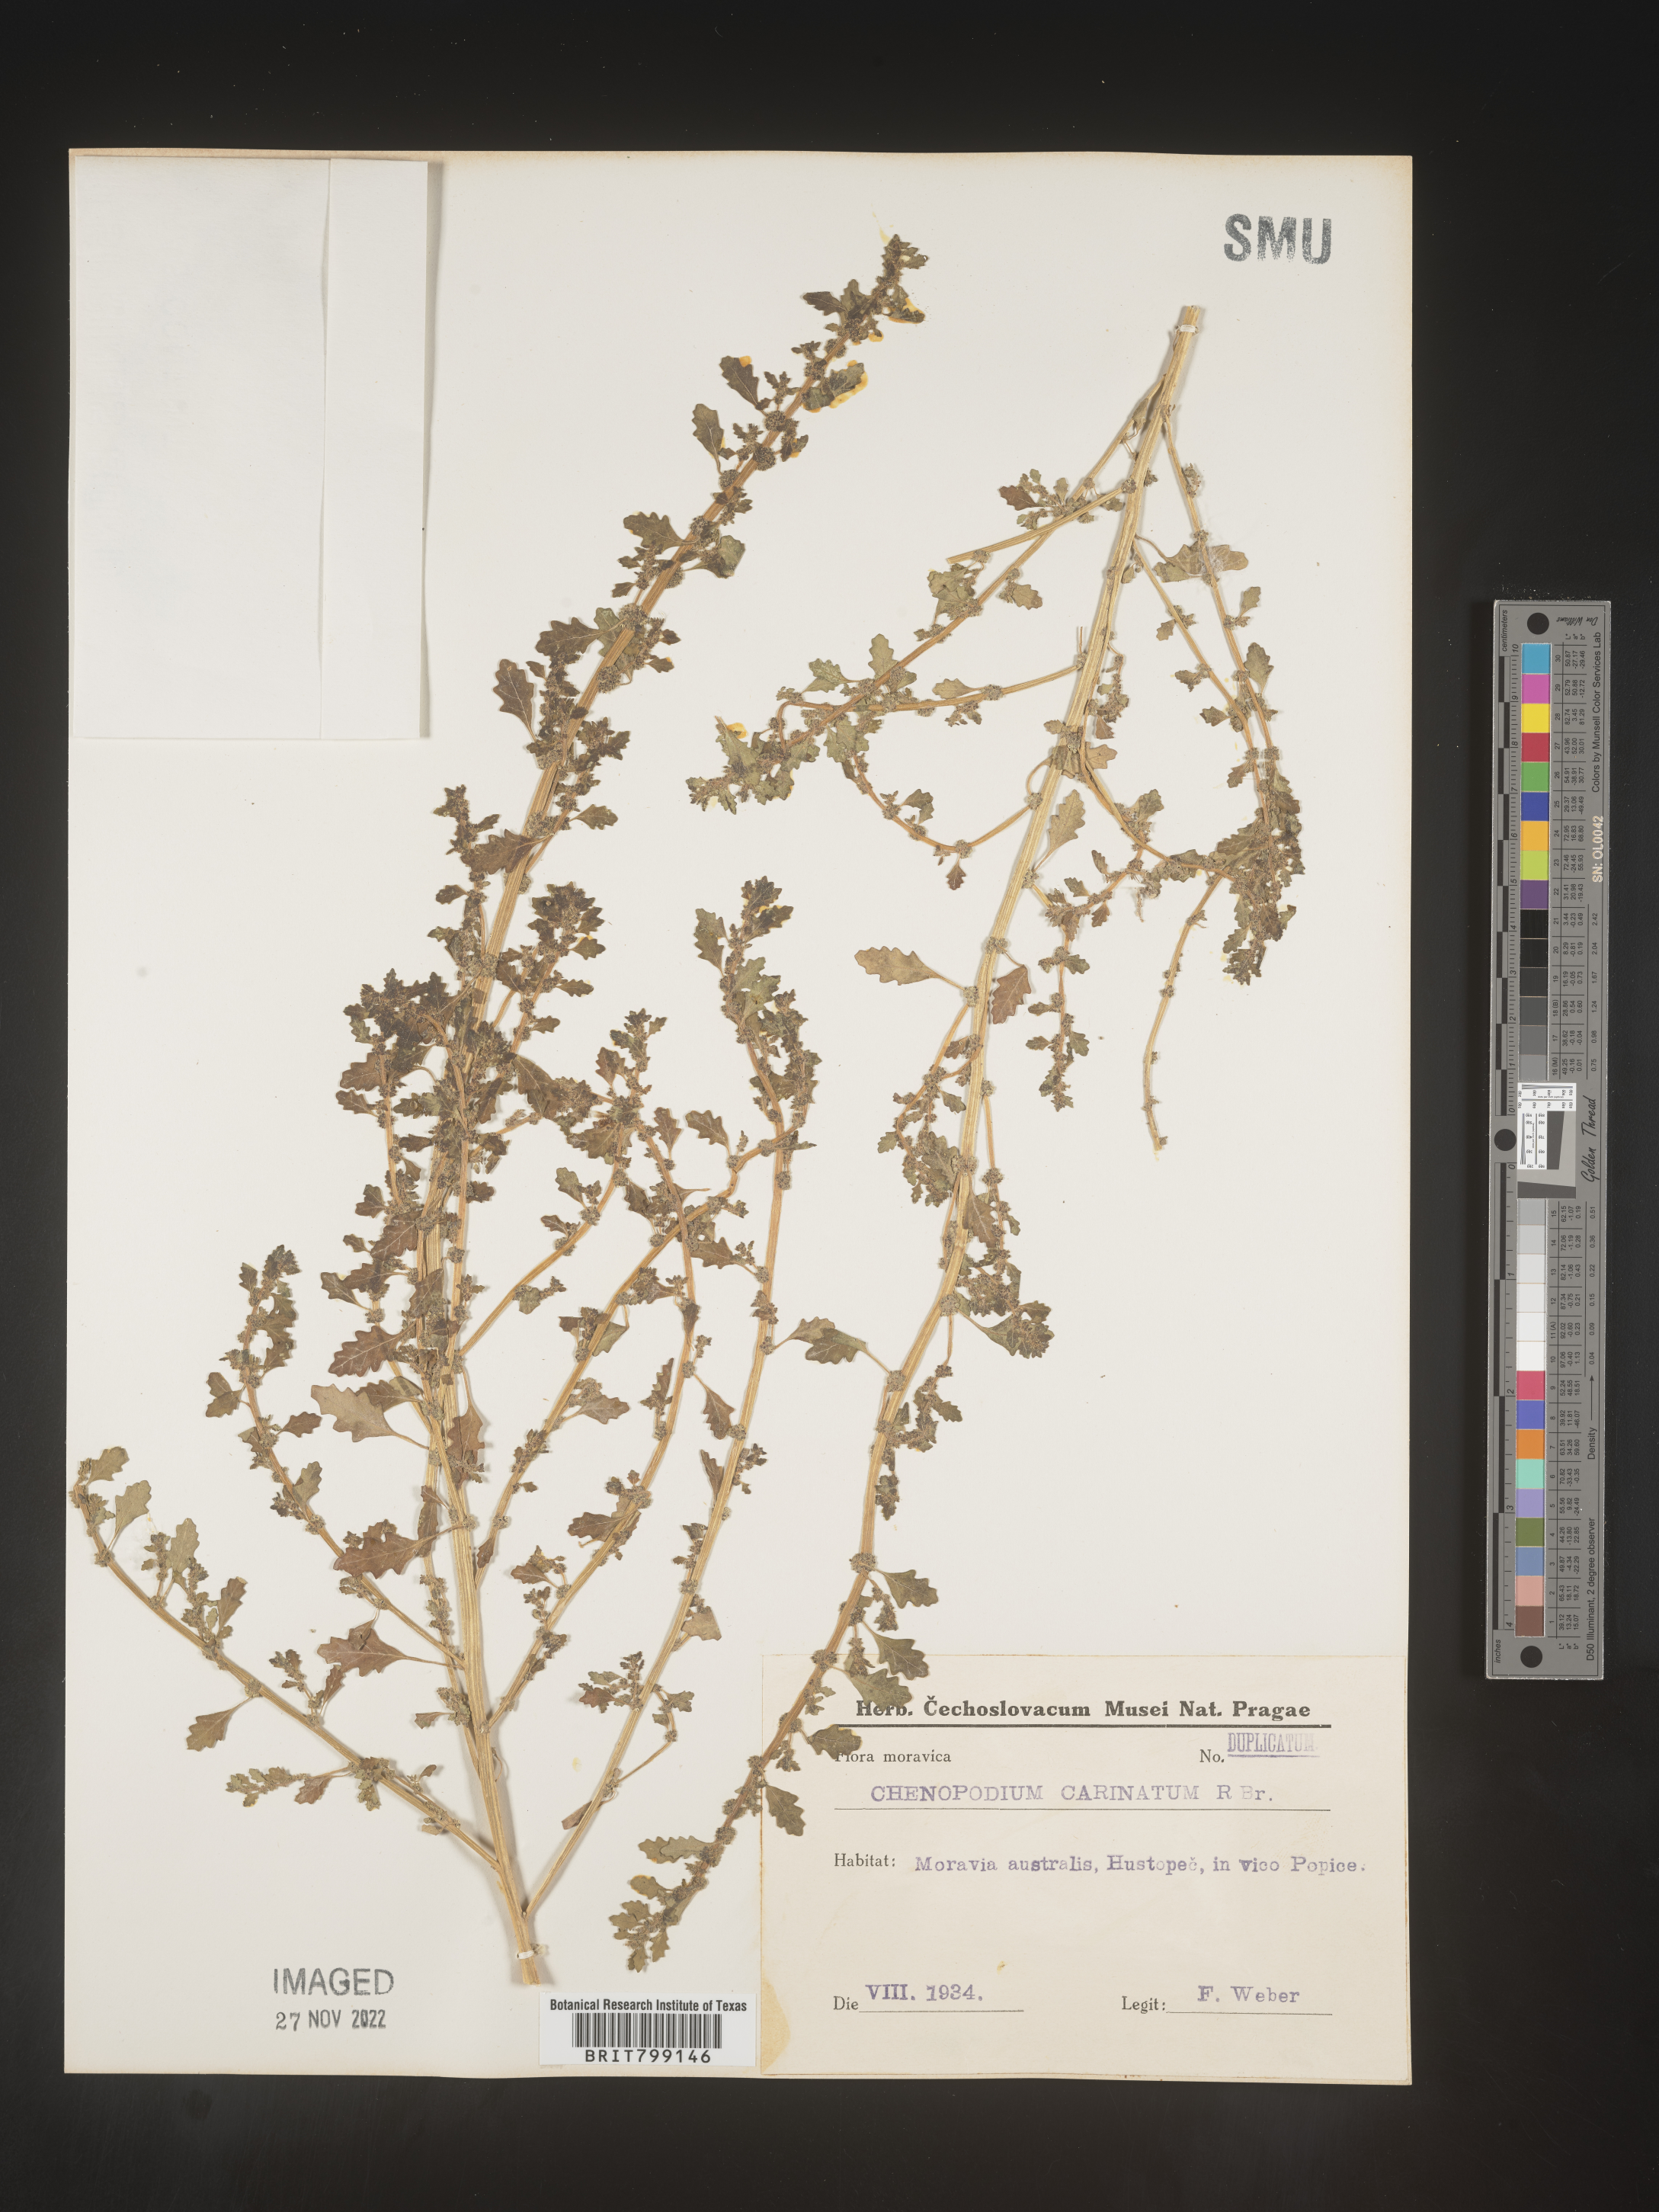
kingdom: Plantae
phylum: Tracheophyta
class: Magnoliopsida
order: Caryophyllales
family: Amaranthaceae
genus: Chenopodium
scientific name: Chenopodium
